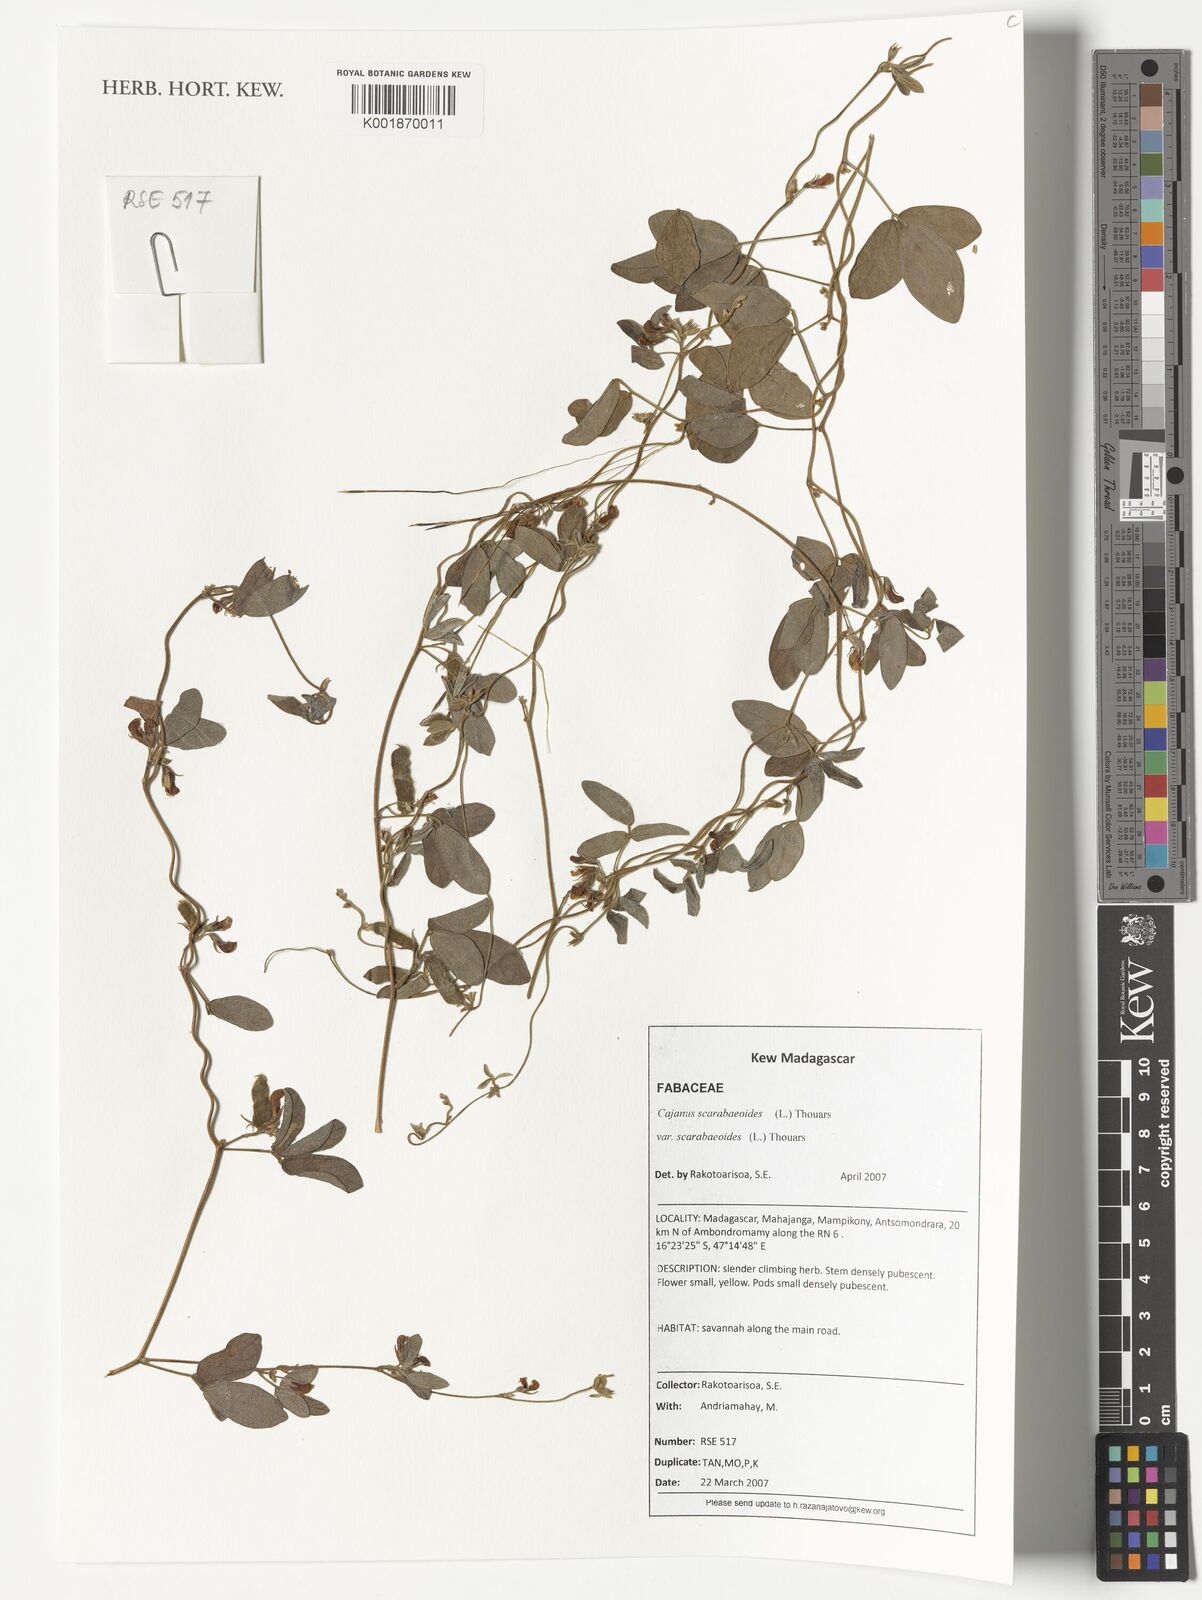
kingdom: Plantae
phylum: Tracheophyta
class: Magnoliopsida
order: Fabales
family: Fabaceae
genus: Cajanus
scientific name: Cajanus scarabaeoides
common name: Showy pigeonpea
